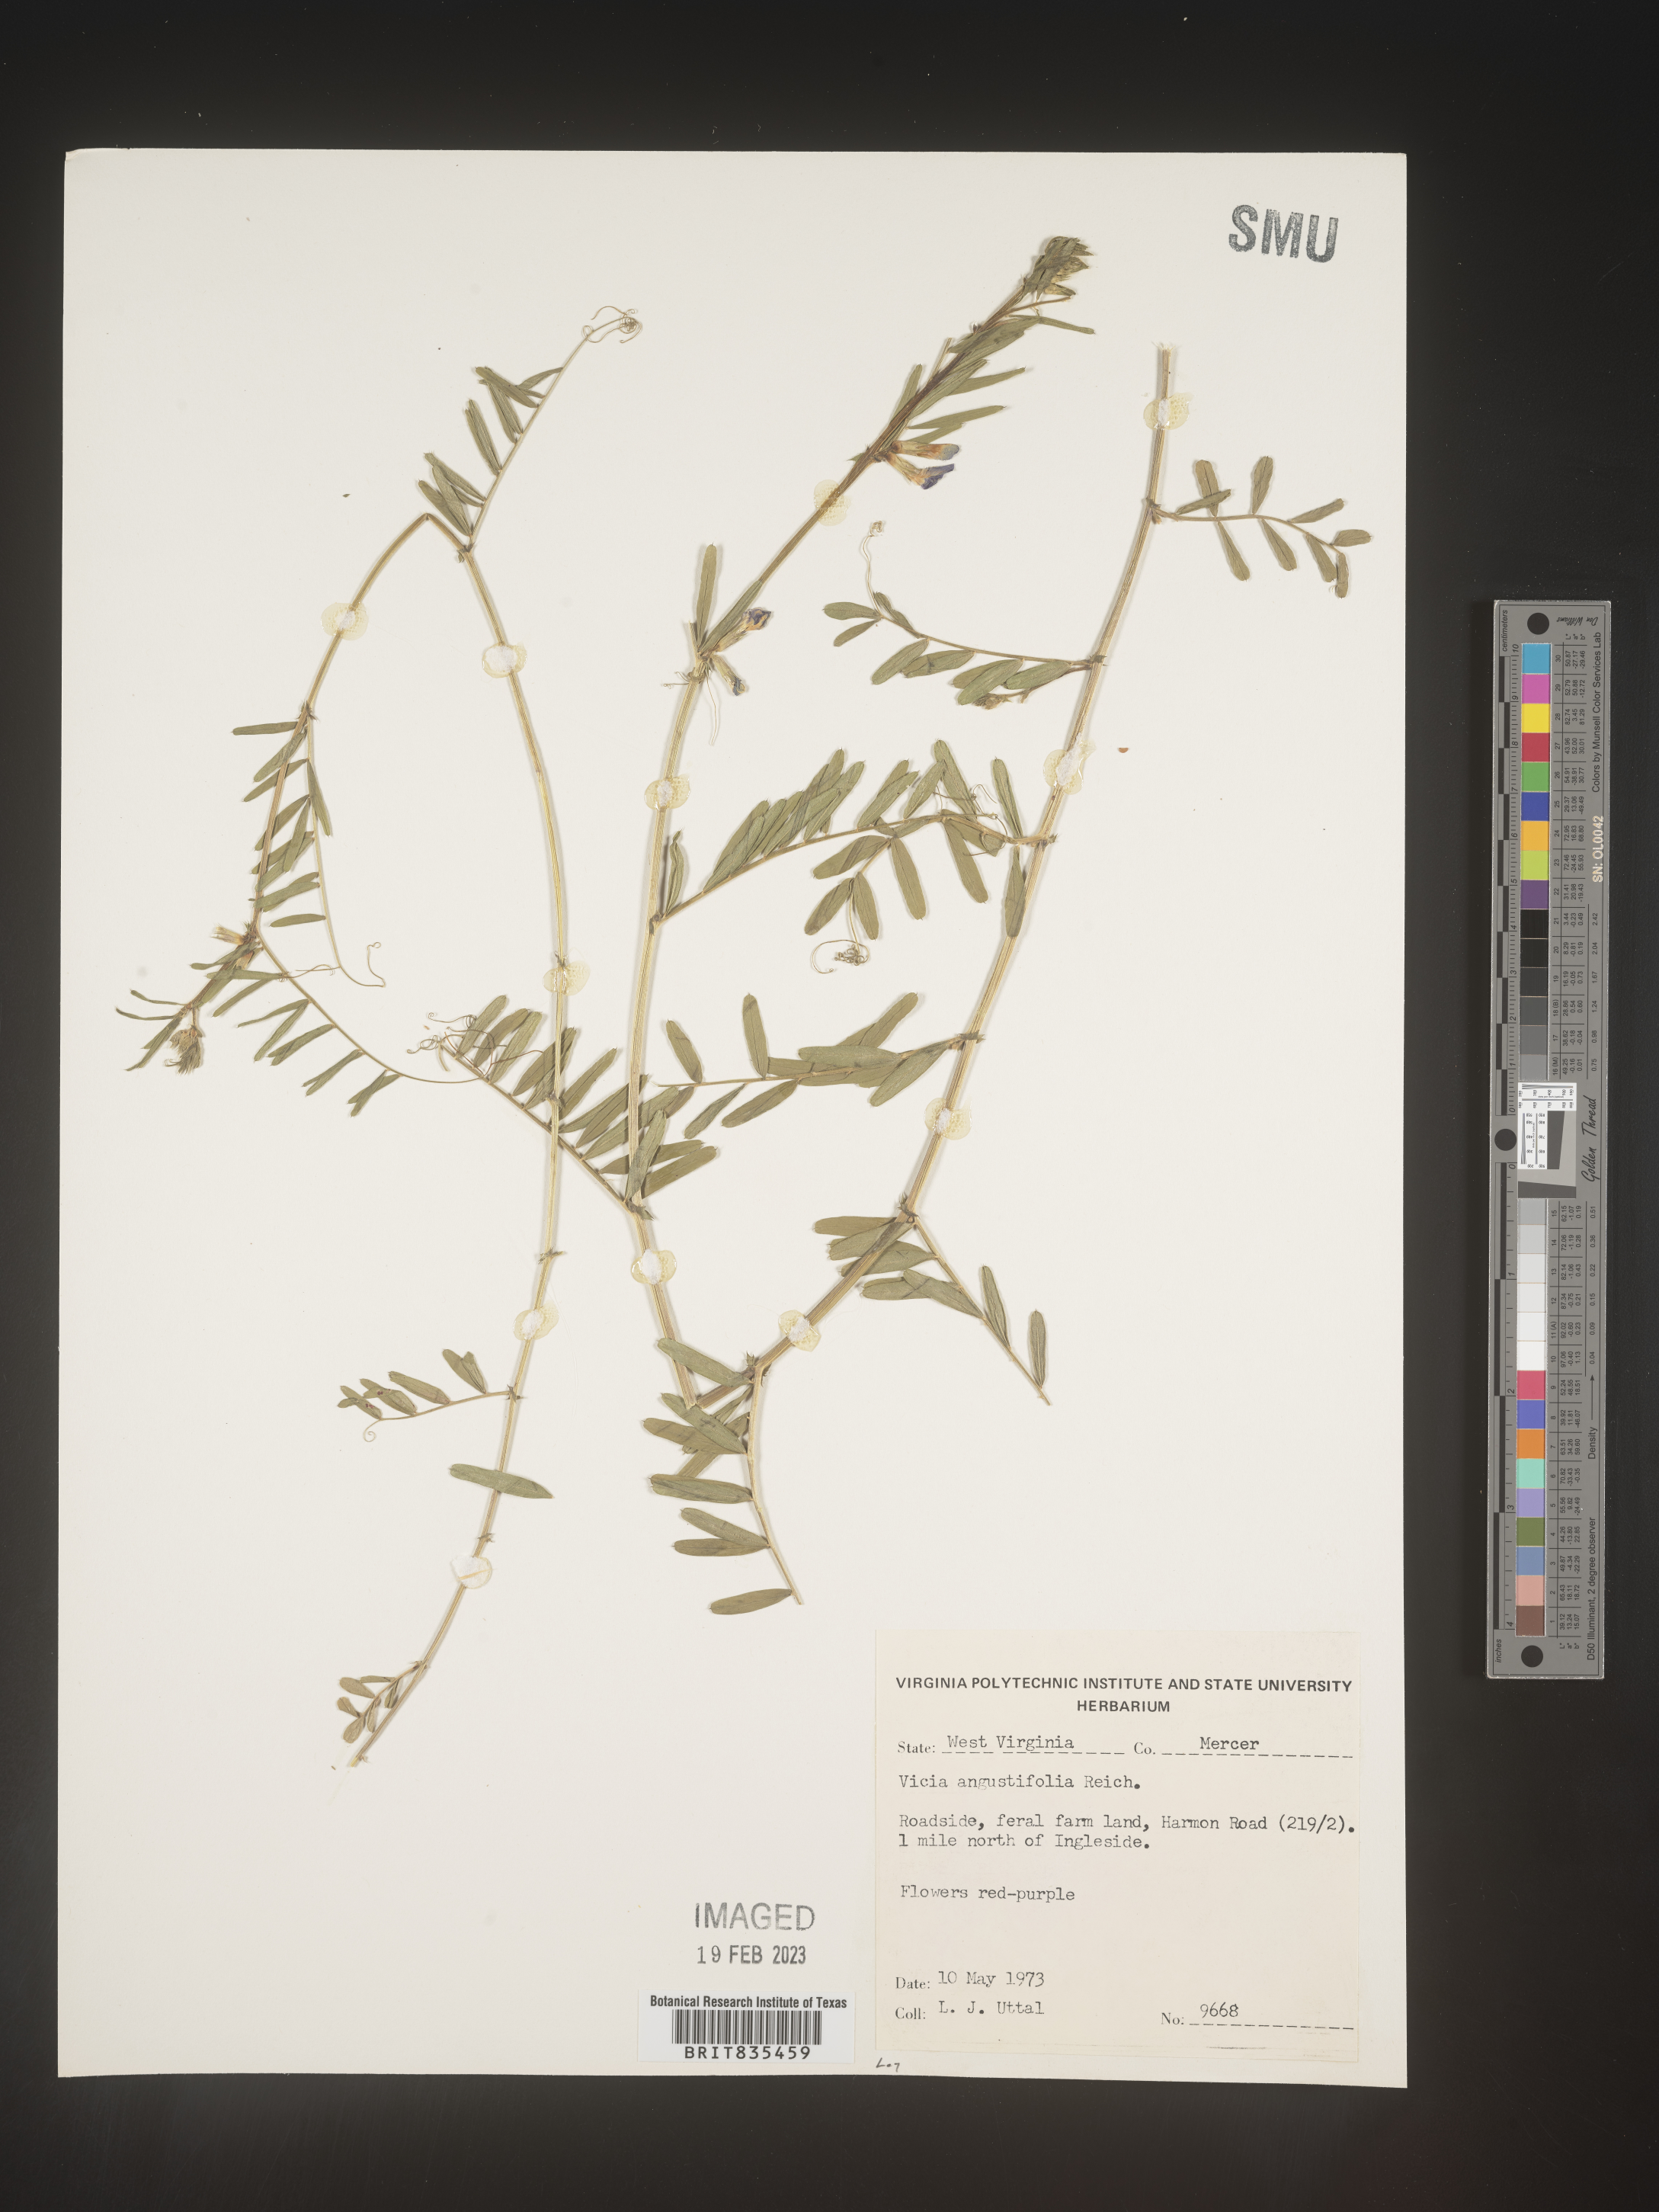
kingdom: Plantae
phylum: Tracheophyta
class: Magnoliopsida
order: Fabales
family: Fabaceae
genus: Vicia
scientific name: Vicia sativa
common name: Garden vetch
